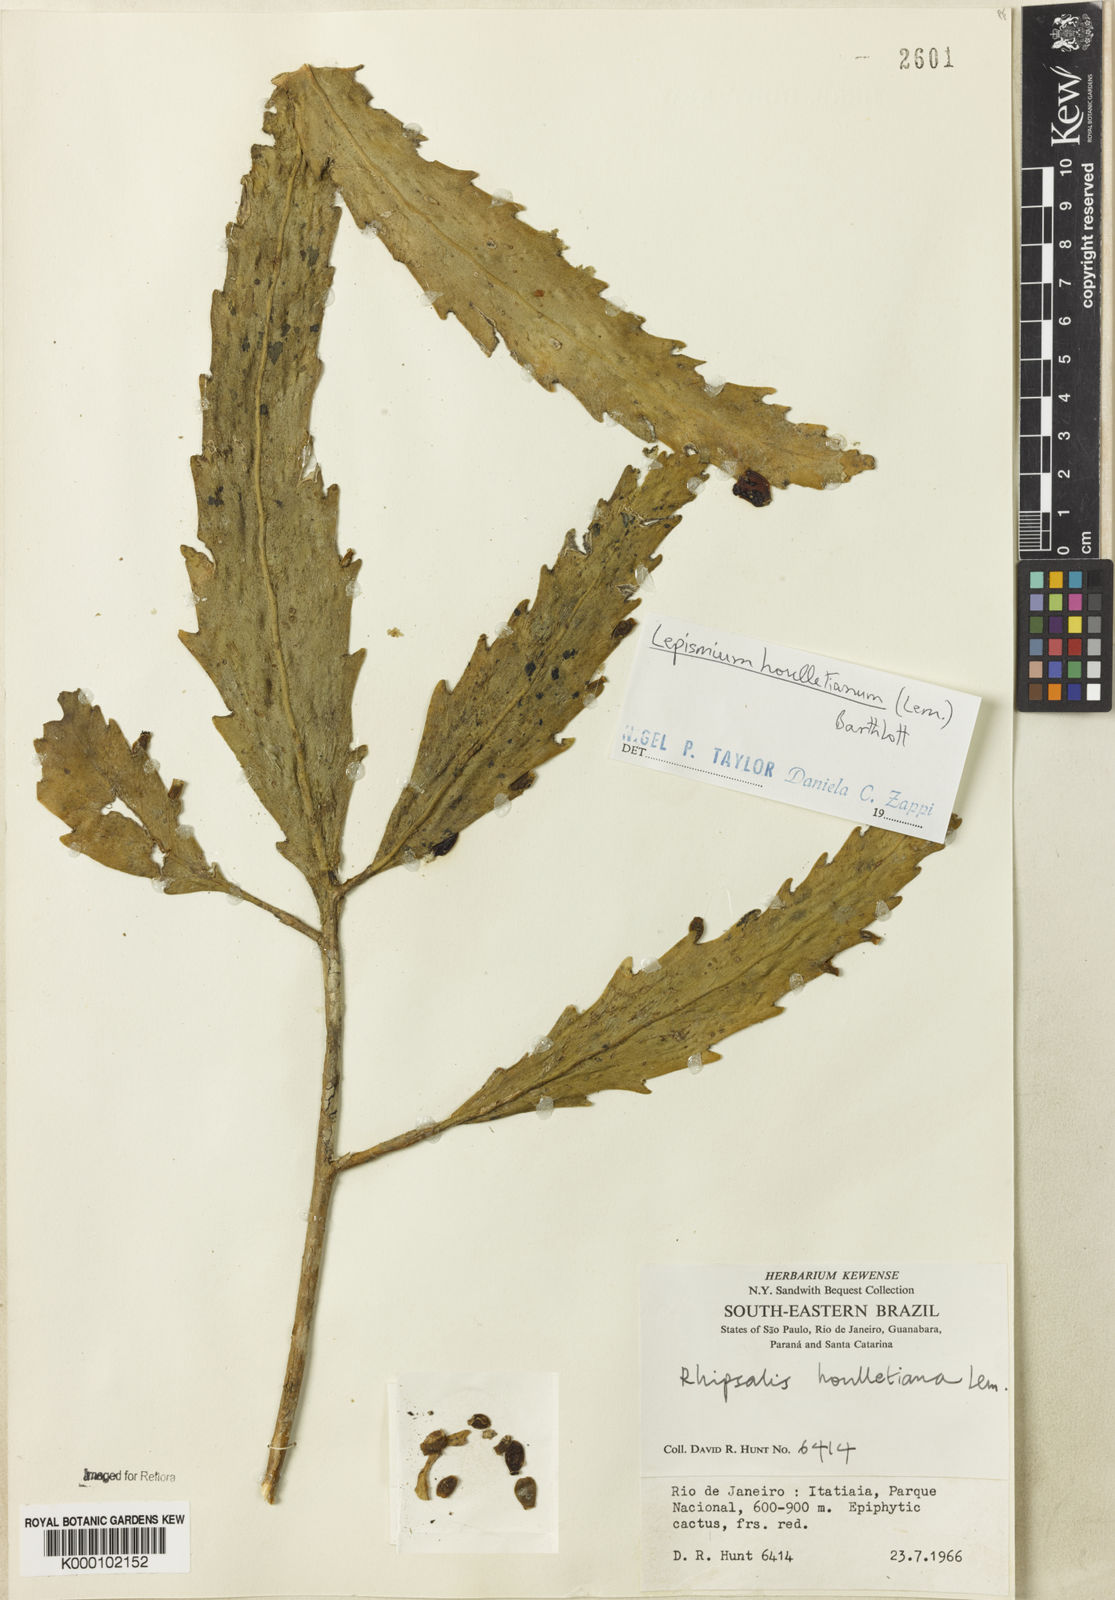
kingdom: Plantae
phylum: Tracheophyta
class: Magnoliopsida
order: Caryophyllales
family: Cactaceae
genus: Lepismium
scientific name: Lepismium houlletianum
